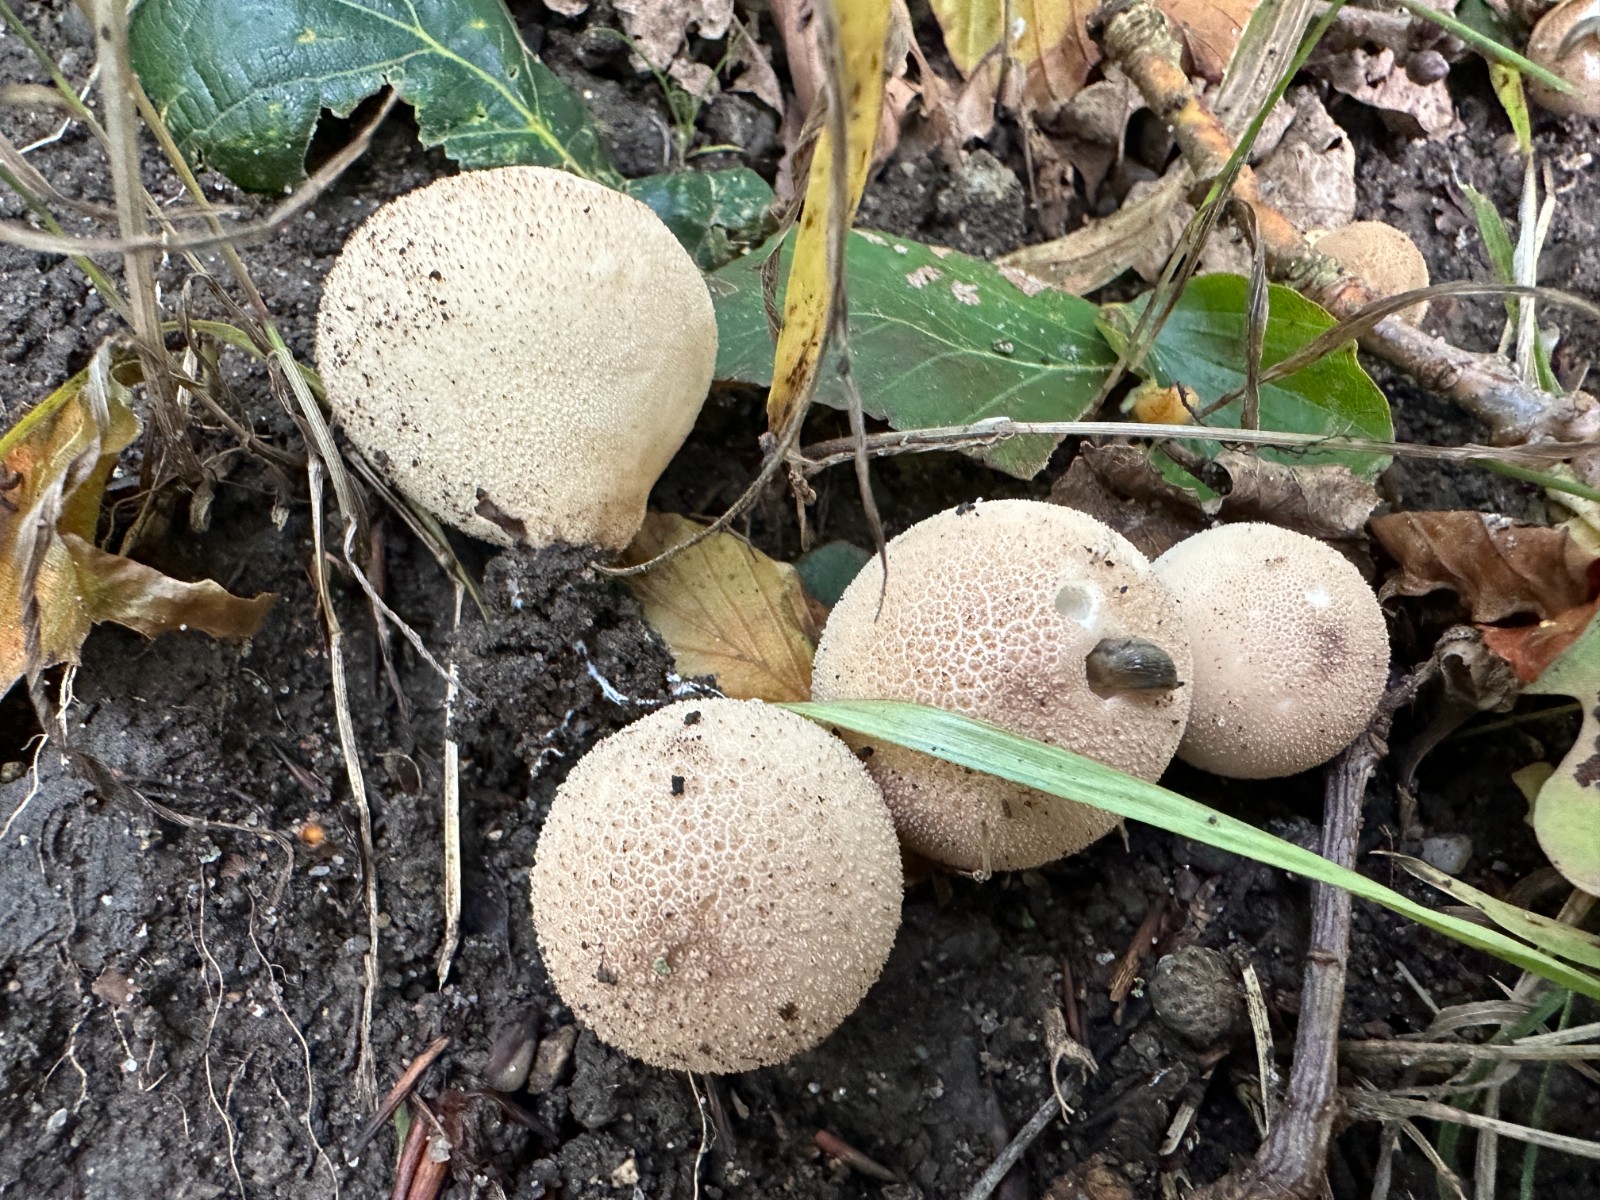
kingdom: Fungi
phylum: Basidiomycota
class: Agaricomycetes
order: Agaricales
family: Lycoperdaceae
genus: Apioperdon
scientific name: Apioperdon pyriforme
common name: pære-støvbold
